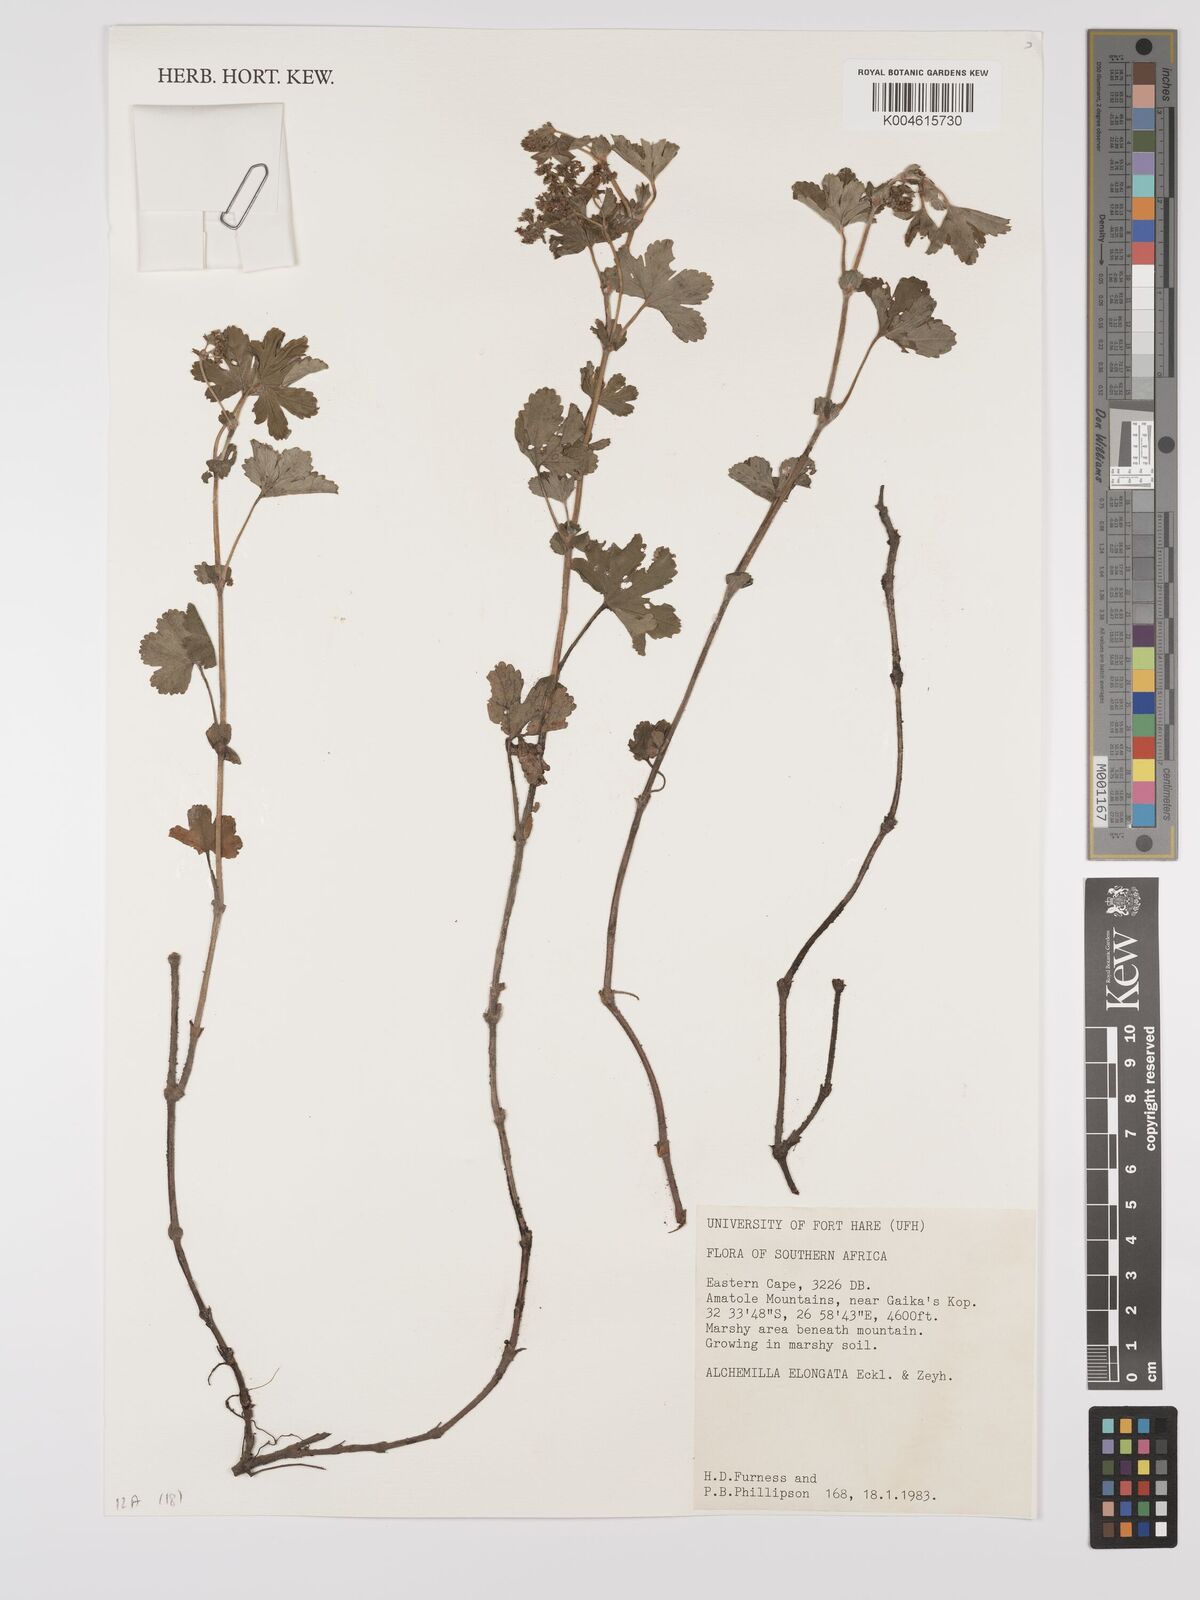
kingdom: Plantae
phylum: Tracheophyta
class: Magnoliopsida
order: Rosales
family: Rosaceae
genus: Alchemilla
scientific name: Alchemilla elongata
